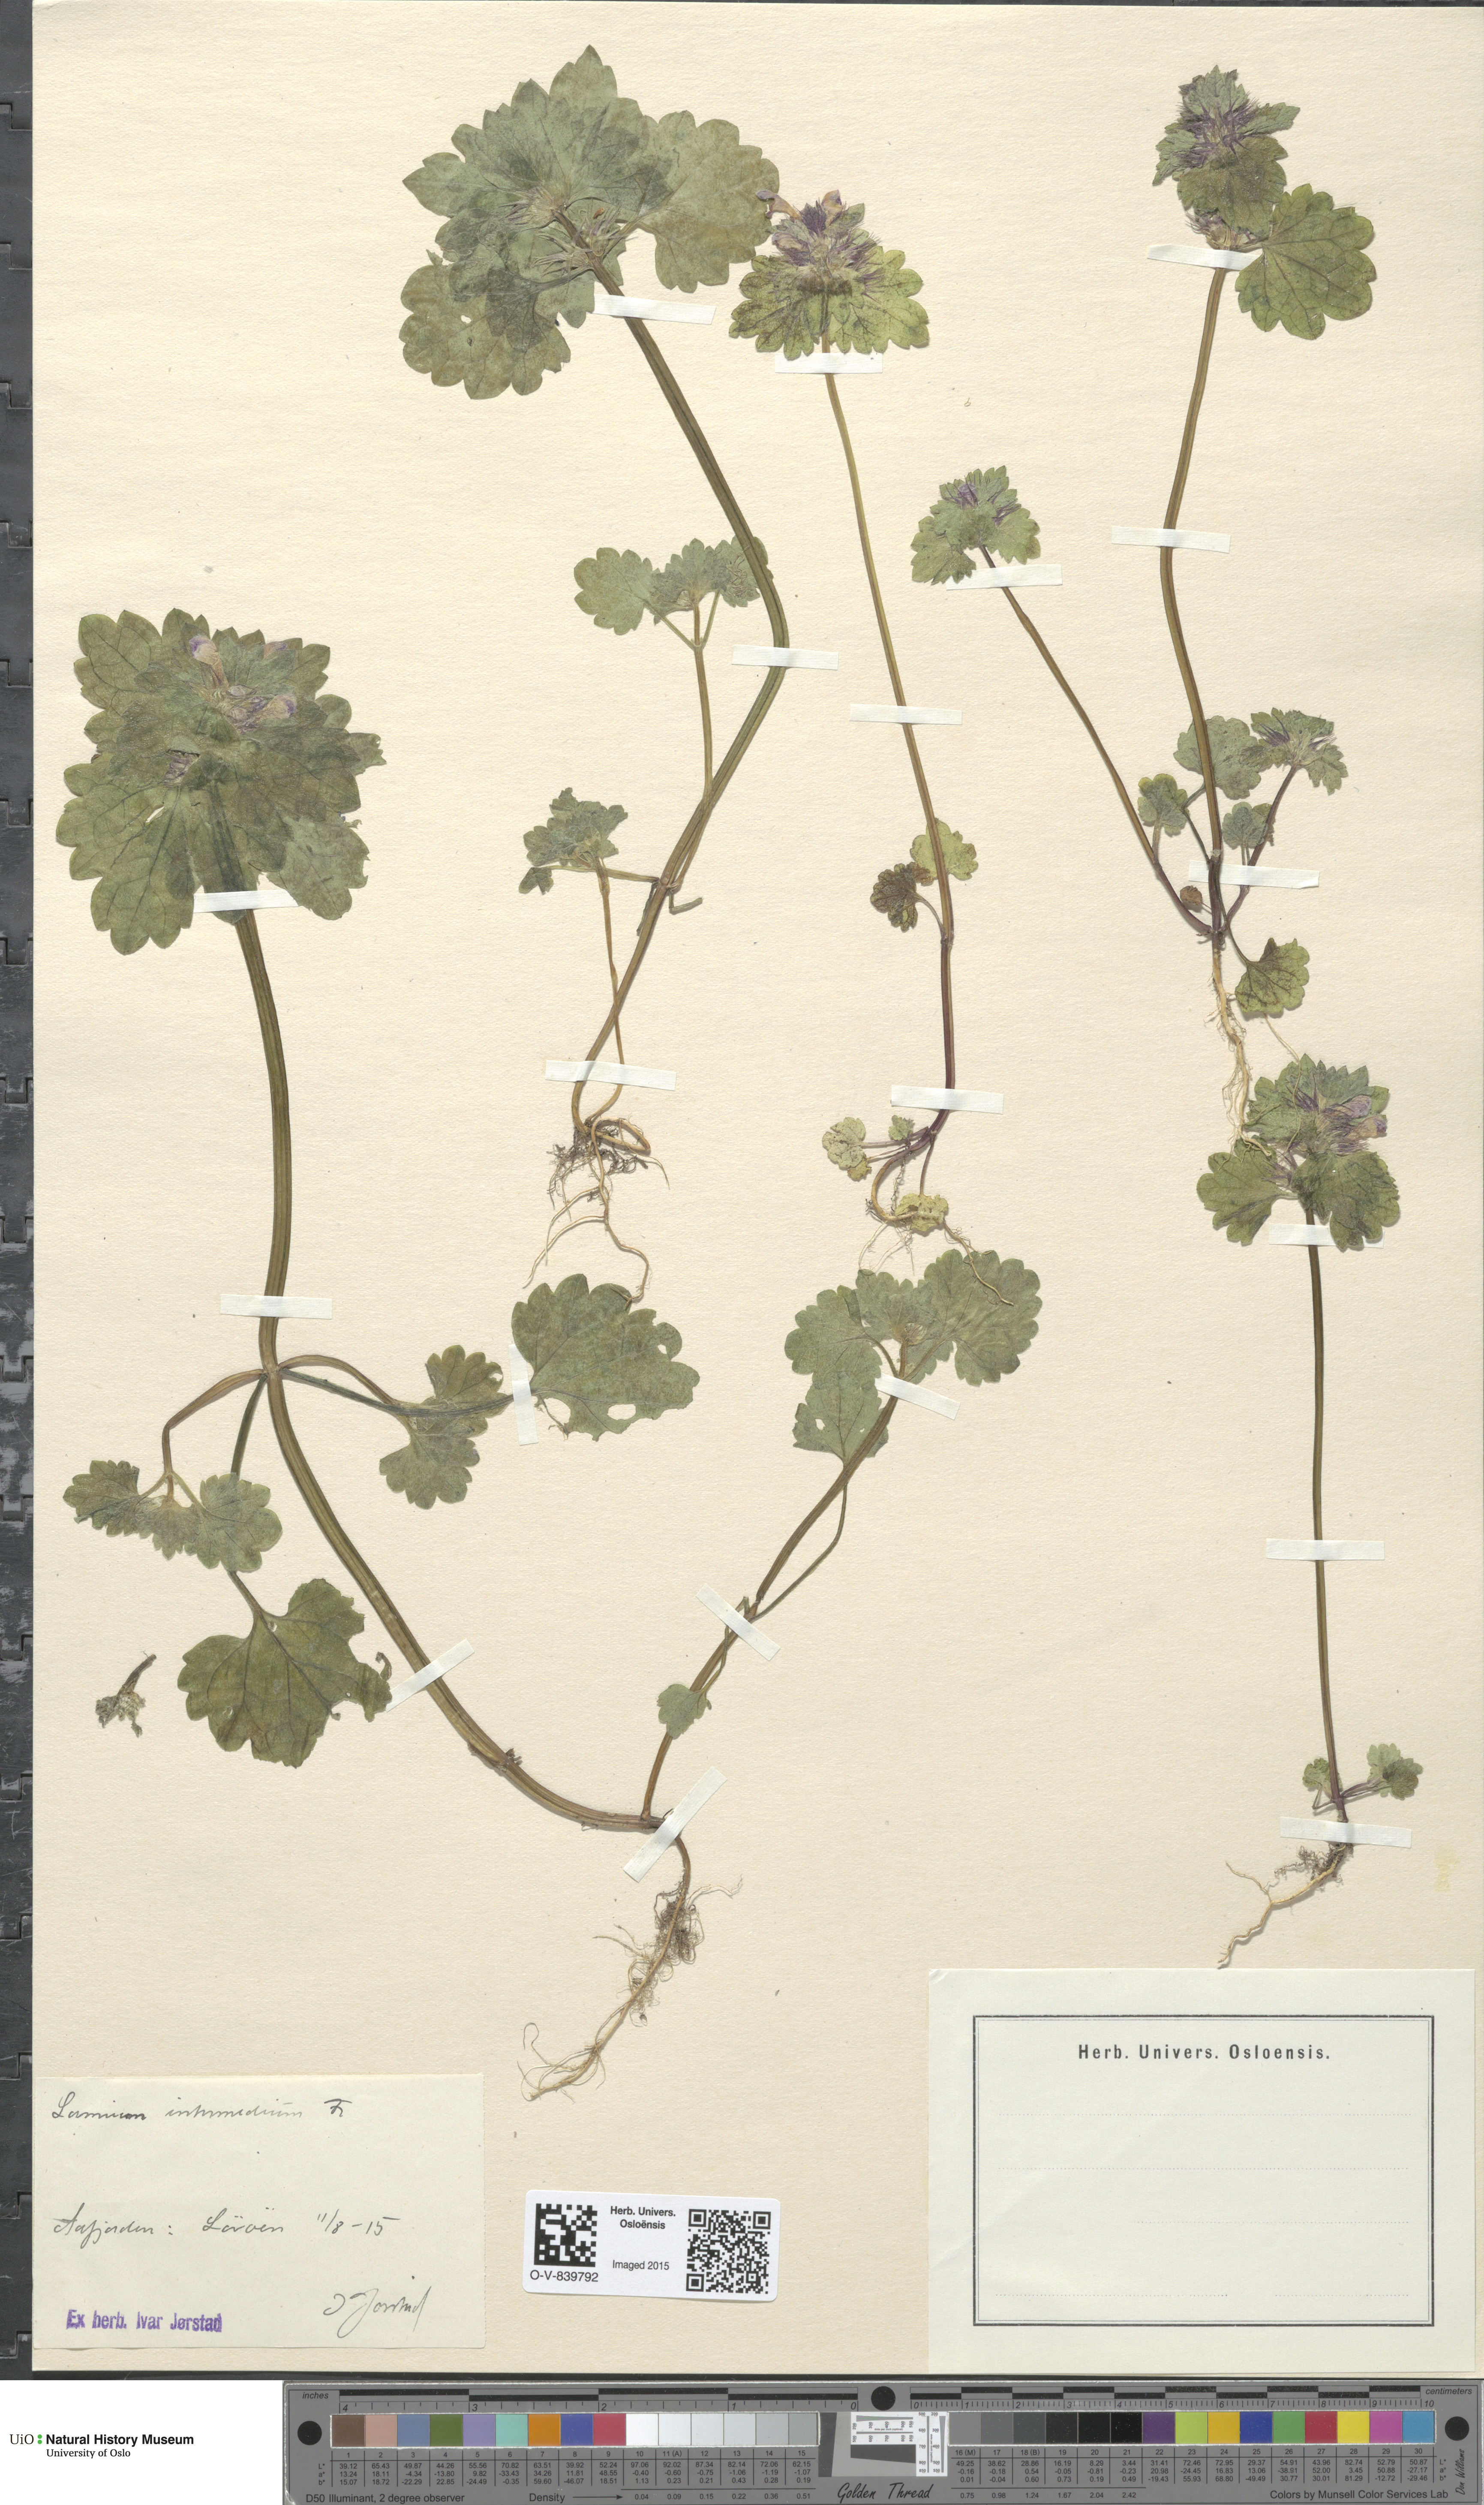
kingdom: Plantae
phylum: Tracheophyta
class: Magnoliopsida
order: Lamiales
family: Lamiaceae
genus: Lamium
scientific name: Lamium confertum
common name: Northern dead-nettle
